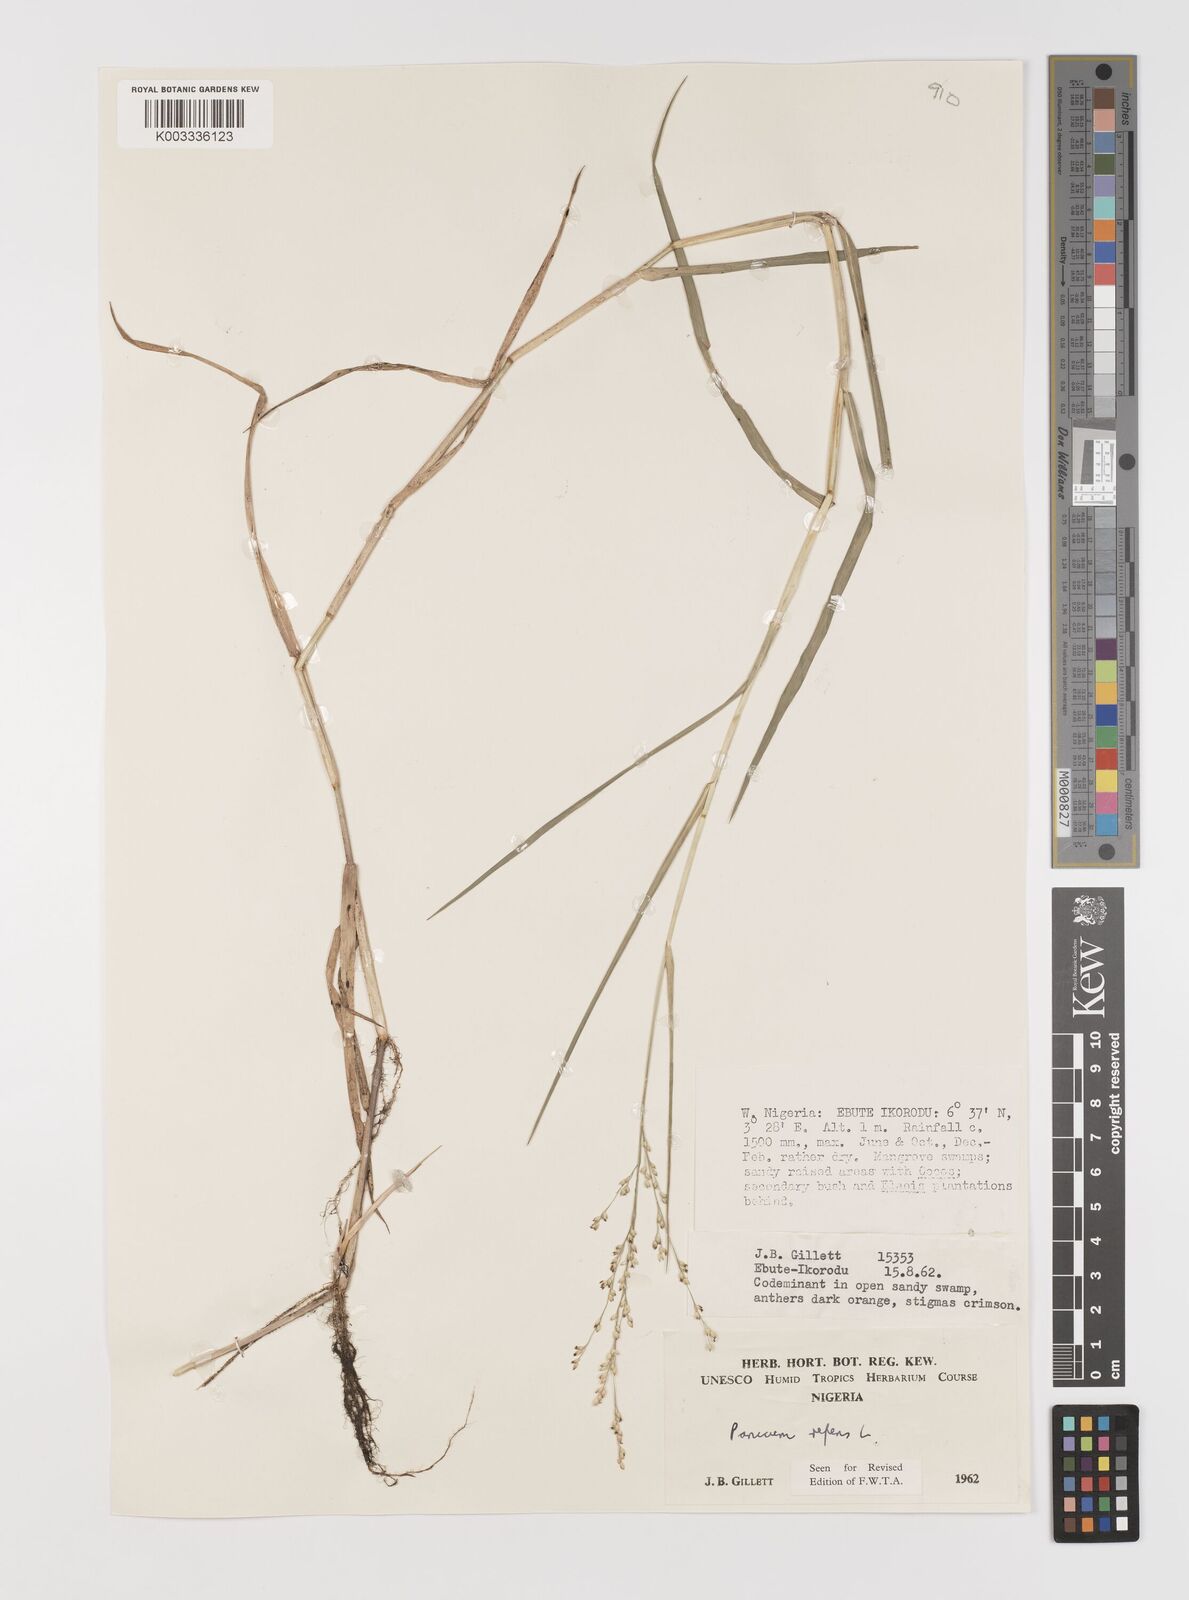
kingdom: Plantae
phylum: Tracheophyta
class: Liliopsida
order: Poales
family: Poaceae
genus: Panicum
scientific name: Panicum repens
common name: Torpedo grass
